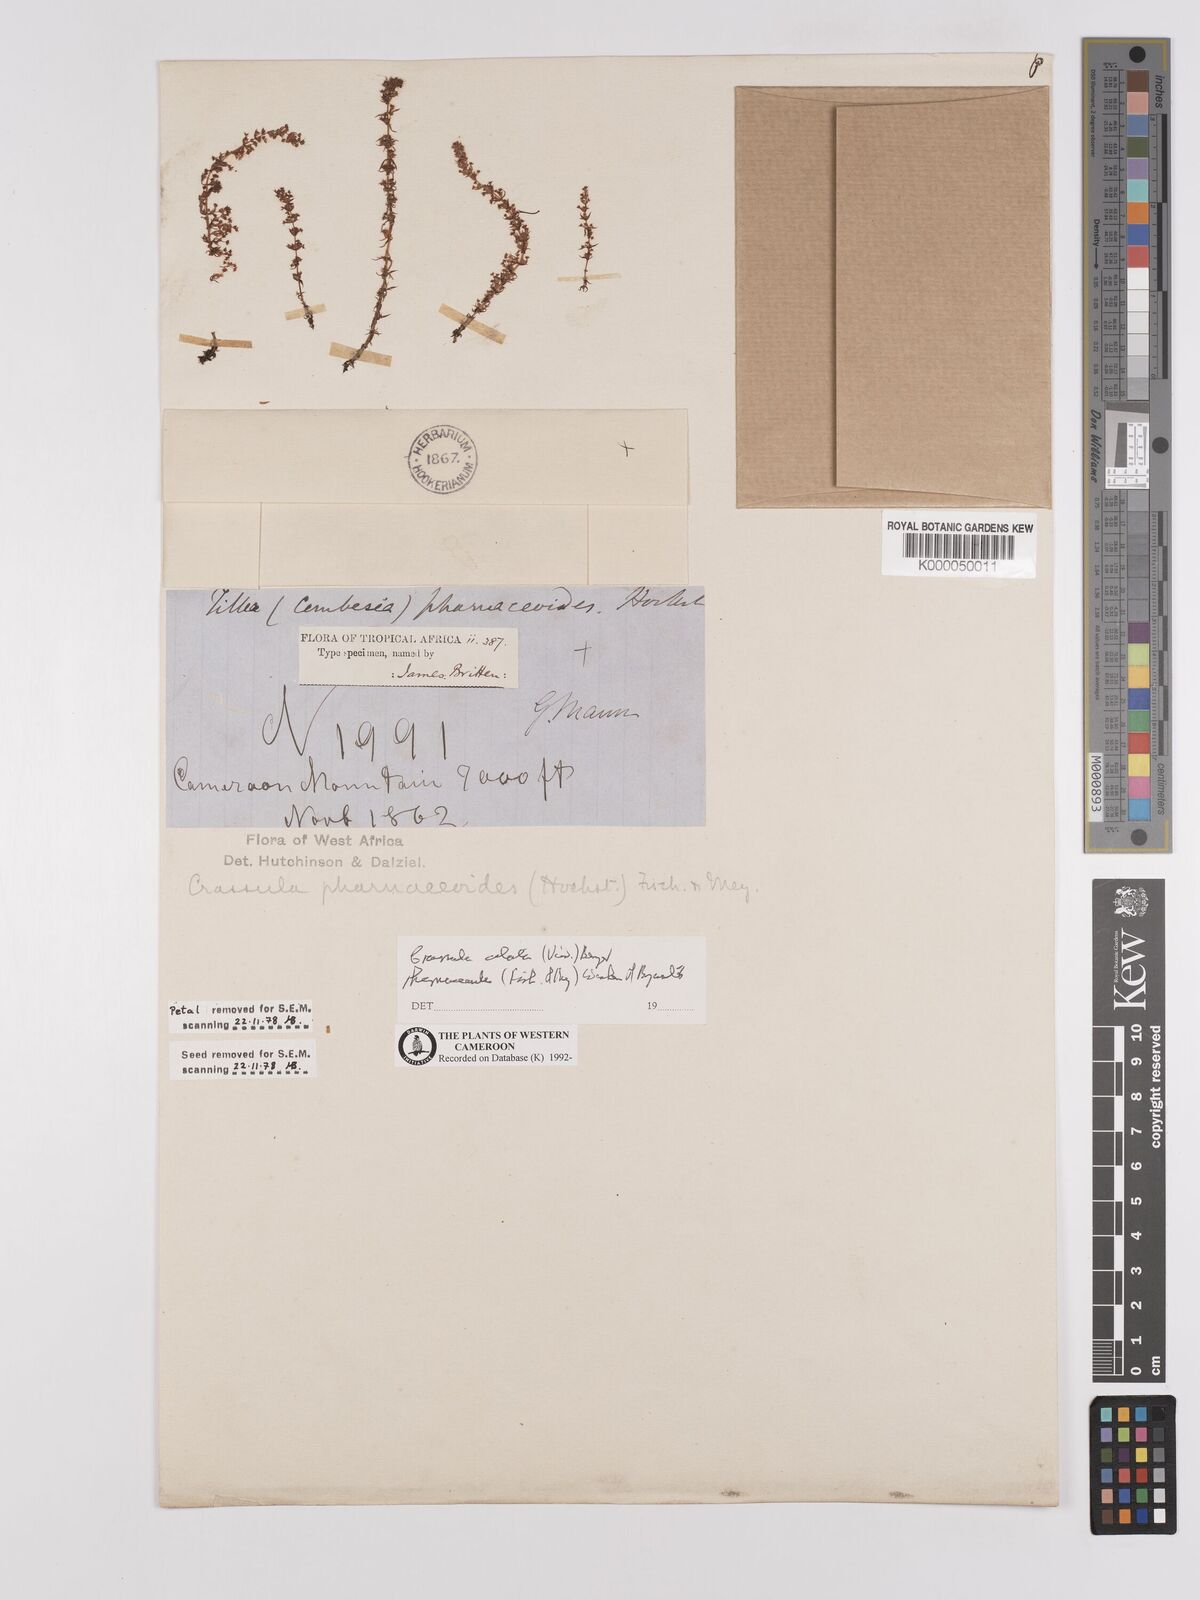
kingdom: Plantae
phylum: Tracheophyta
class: Magnoliopsida
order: Saxifragales
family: Crassulaceae
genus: Crassula
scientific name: Crassula alata
